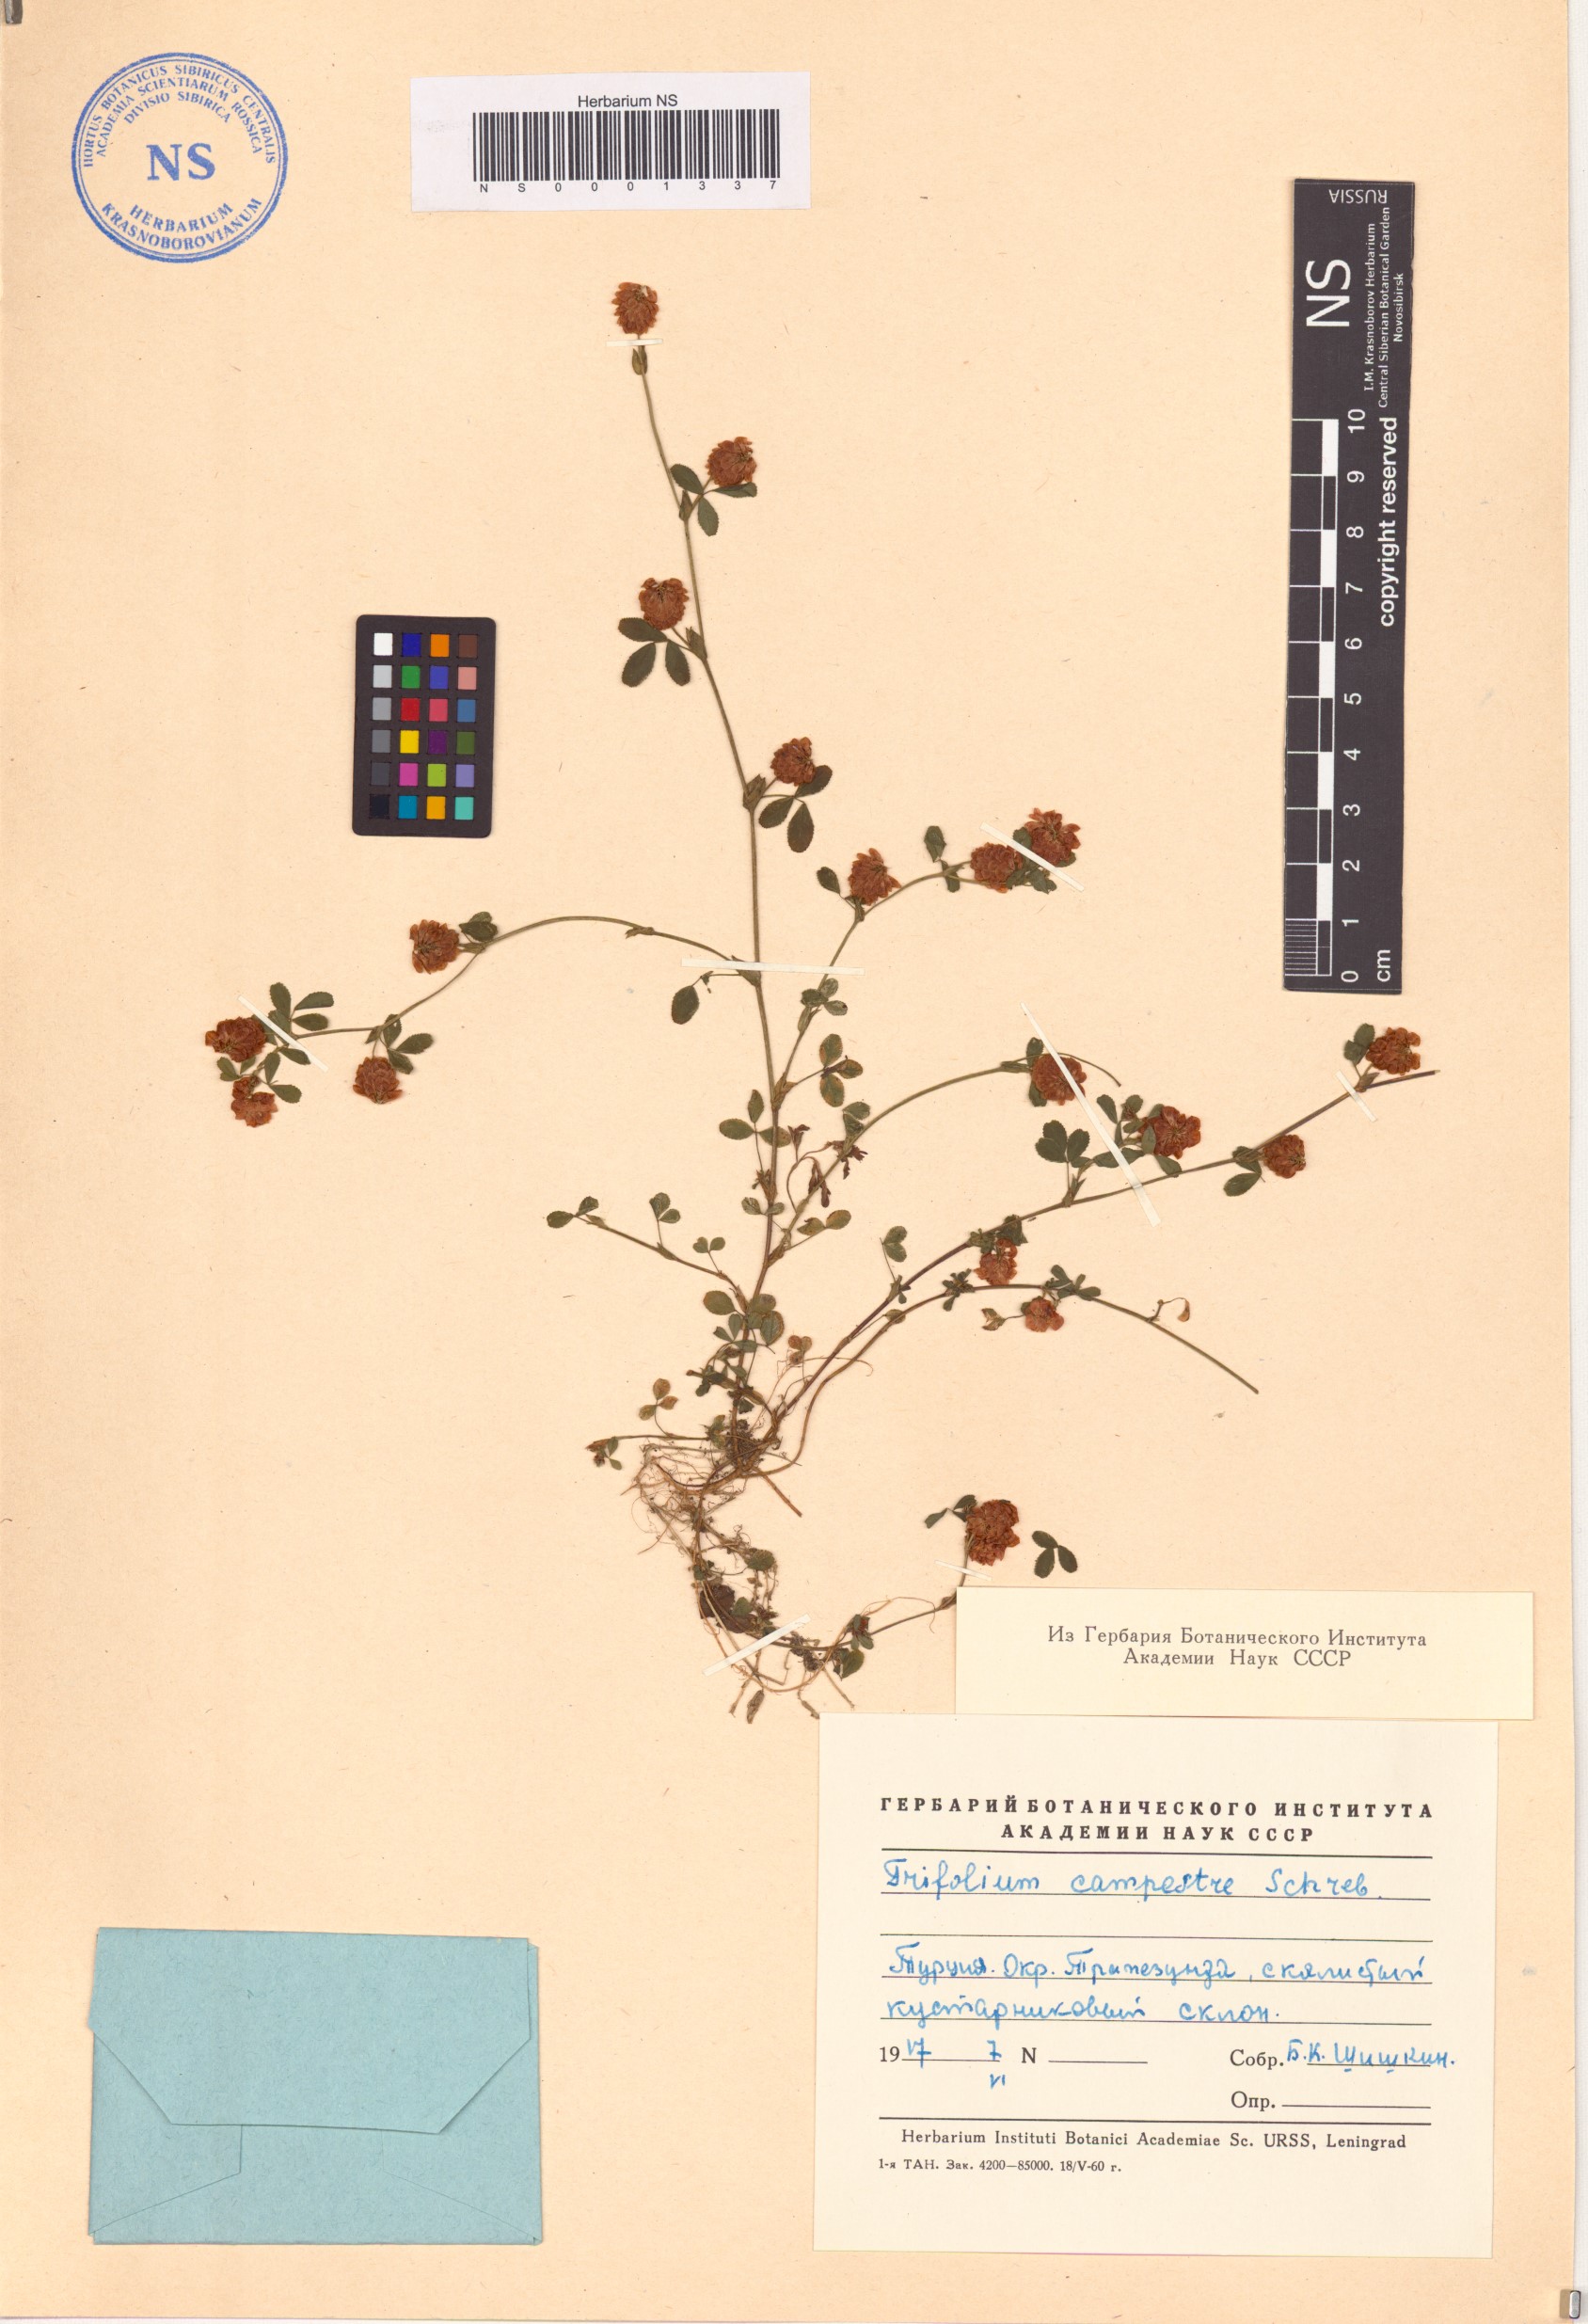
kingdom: Plantae
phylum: Tracheophyta
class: Magnoliopsida
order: Fabales
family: Fabaceae
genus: Trifolium
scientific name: Trifolium campestre
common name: Field clover
